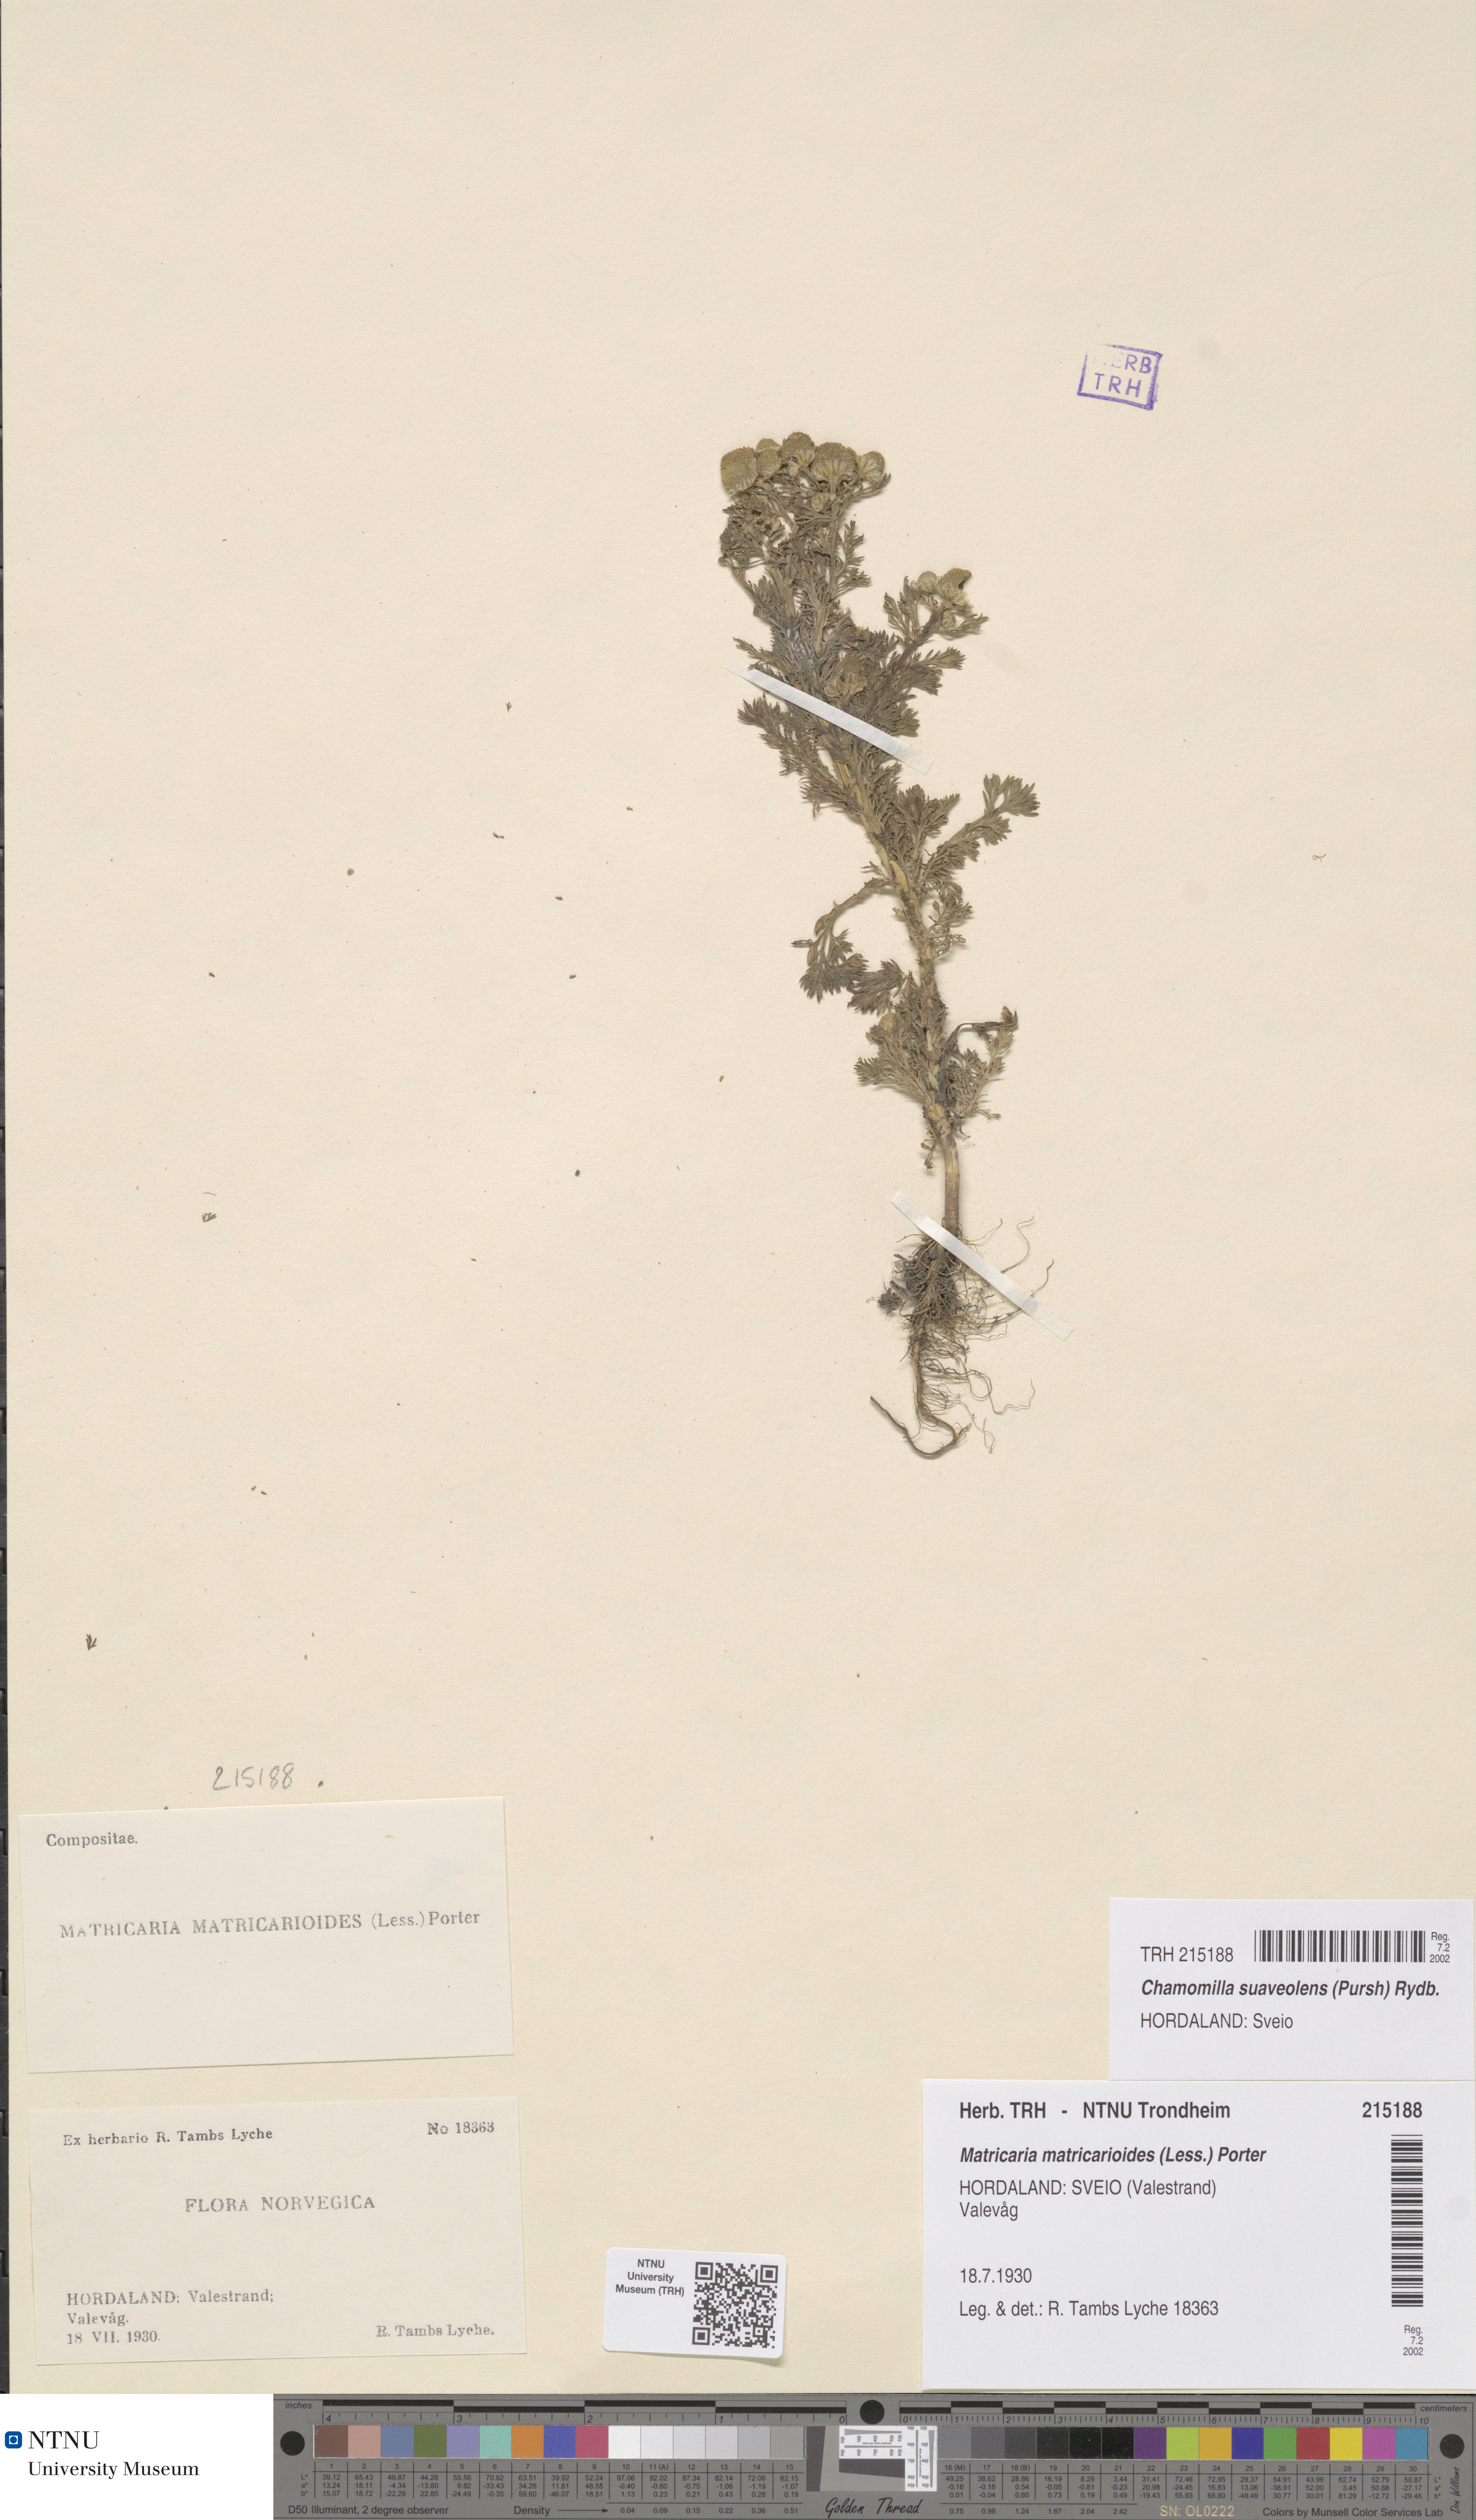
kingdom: Plantae
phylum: Tracheophyta
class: Magnoliopsida
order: Asterales
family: Asteraceae
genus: Matricaria
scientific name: Matricaria discoidea
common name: Disc mayweed
